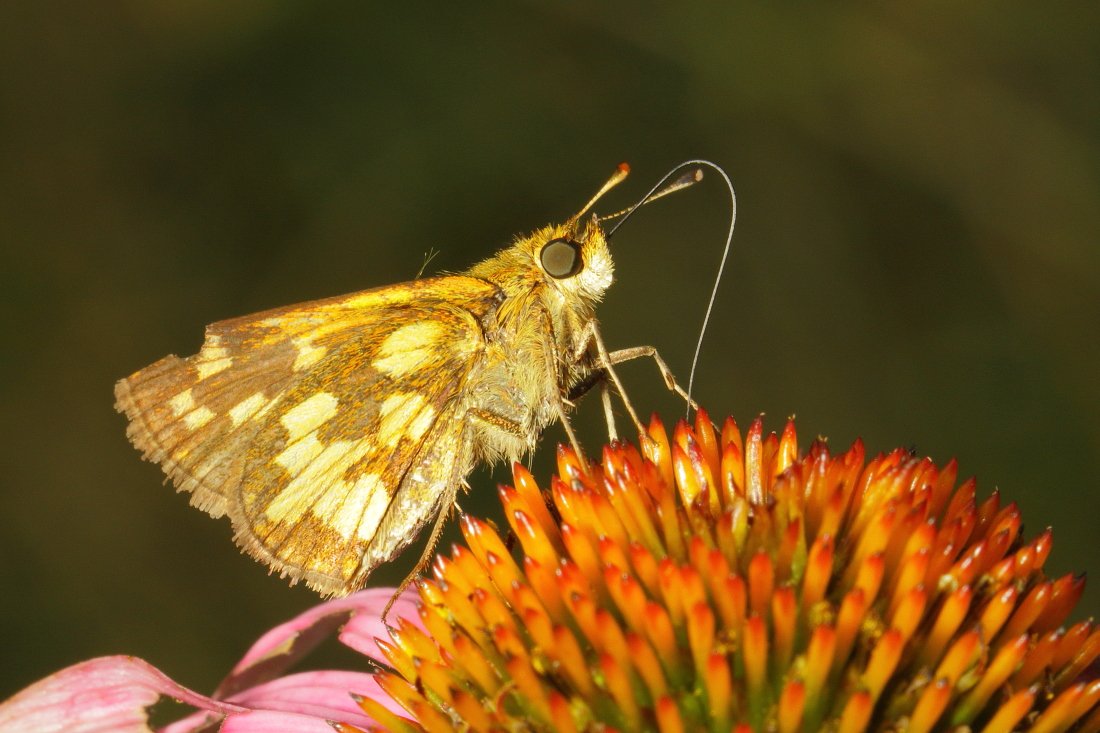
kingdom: Animalia
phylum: Arthropoda
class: Insecta
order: Lepidoptera
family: Hesperiidae
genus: Polites
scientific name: Polites coras
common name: Peck's Skipper
